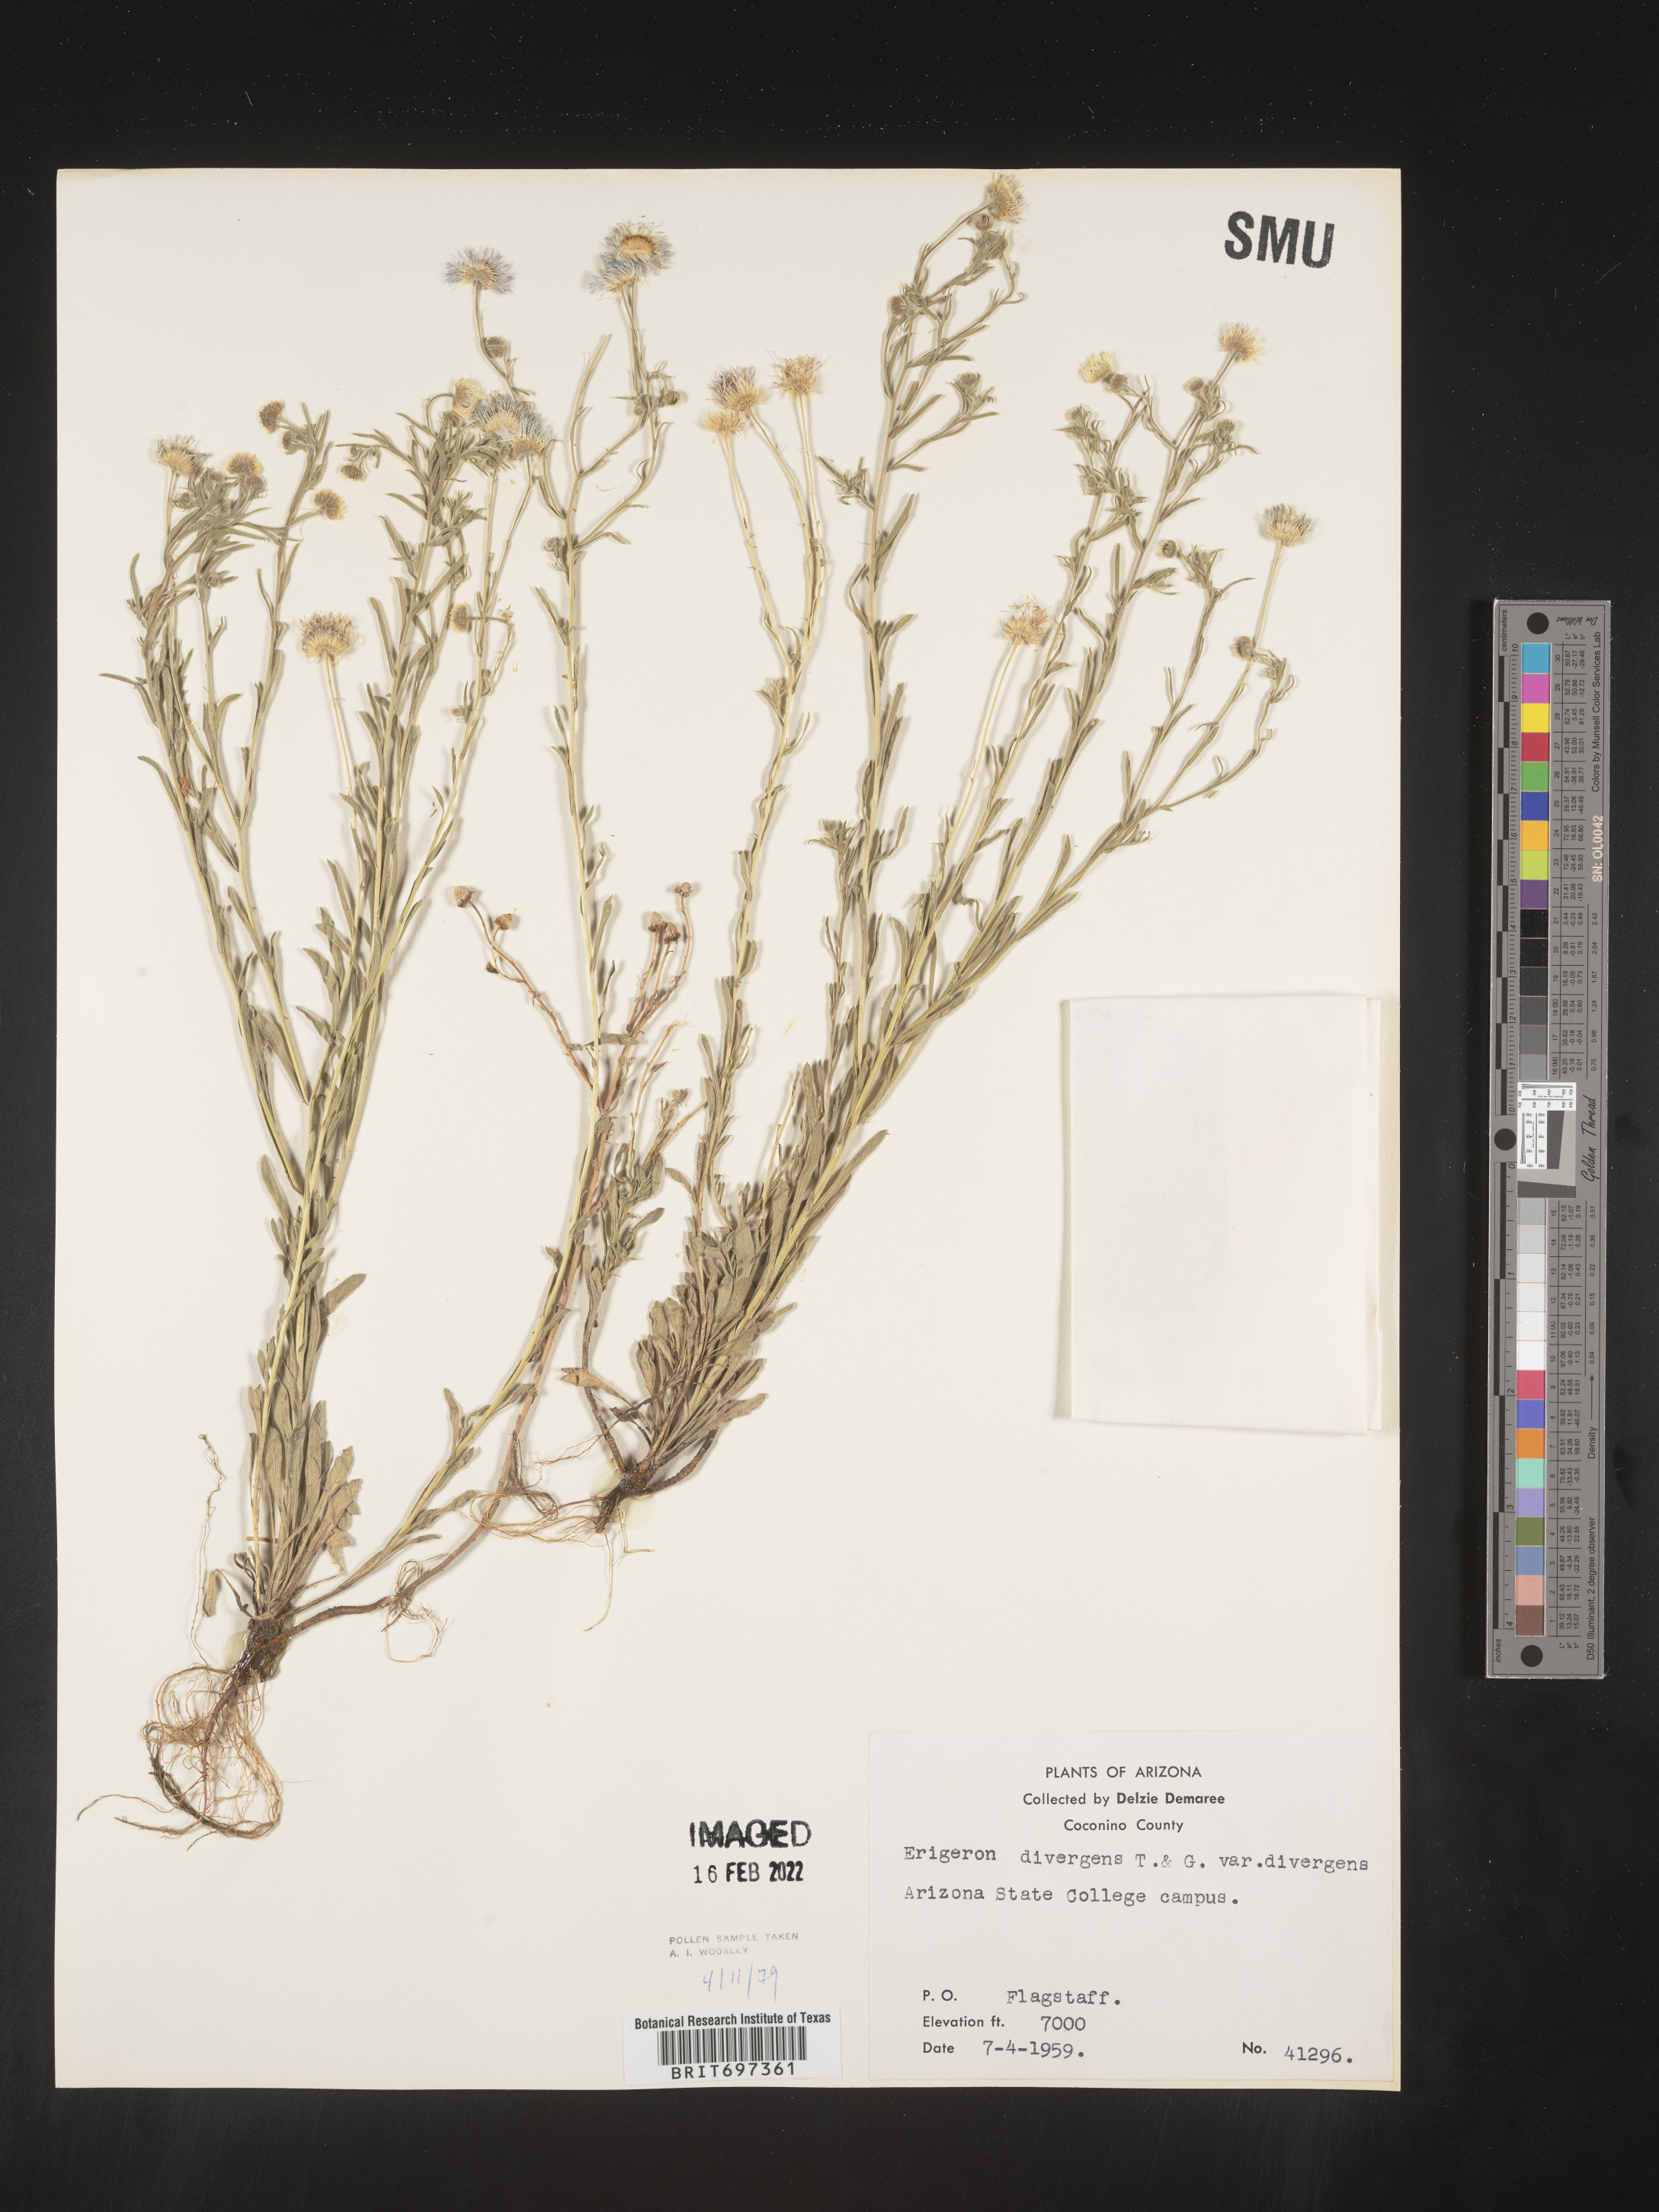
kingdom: Plantae
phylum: Tracheophyta
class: Magnoliopsida
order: Asterales
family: Asteraceae
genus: Erigeron
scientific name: Erigeron divergens
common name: Diffuse fleabane
